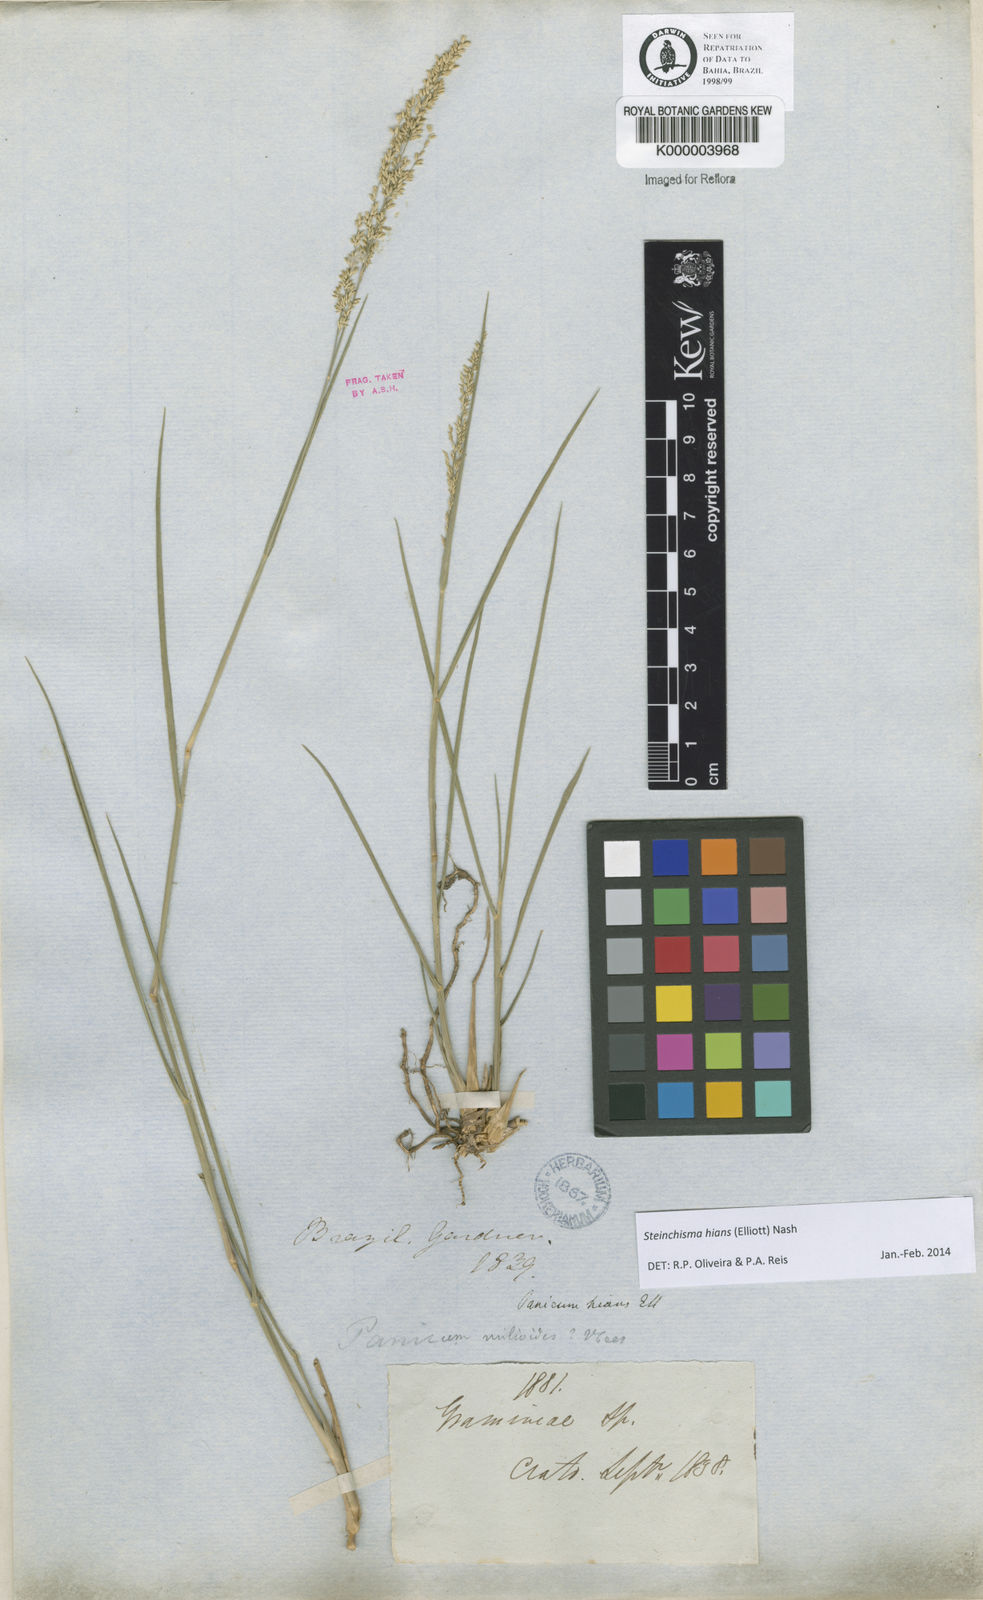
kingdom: Plantae
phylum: Tracheophyta
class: Liliopsida
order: Poales
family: Poaceae
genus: Steinchisma
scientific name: Steinchisma hians
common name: Gaping panic grass
